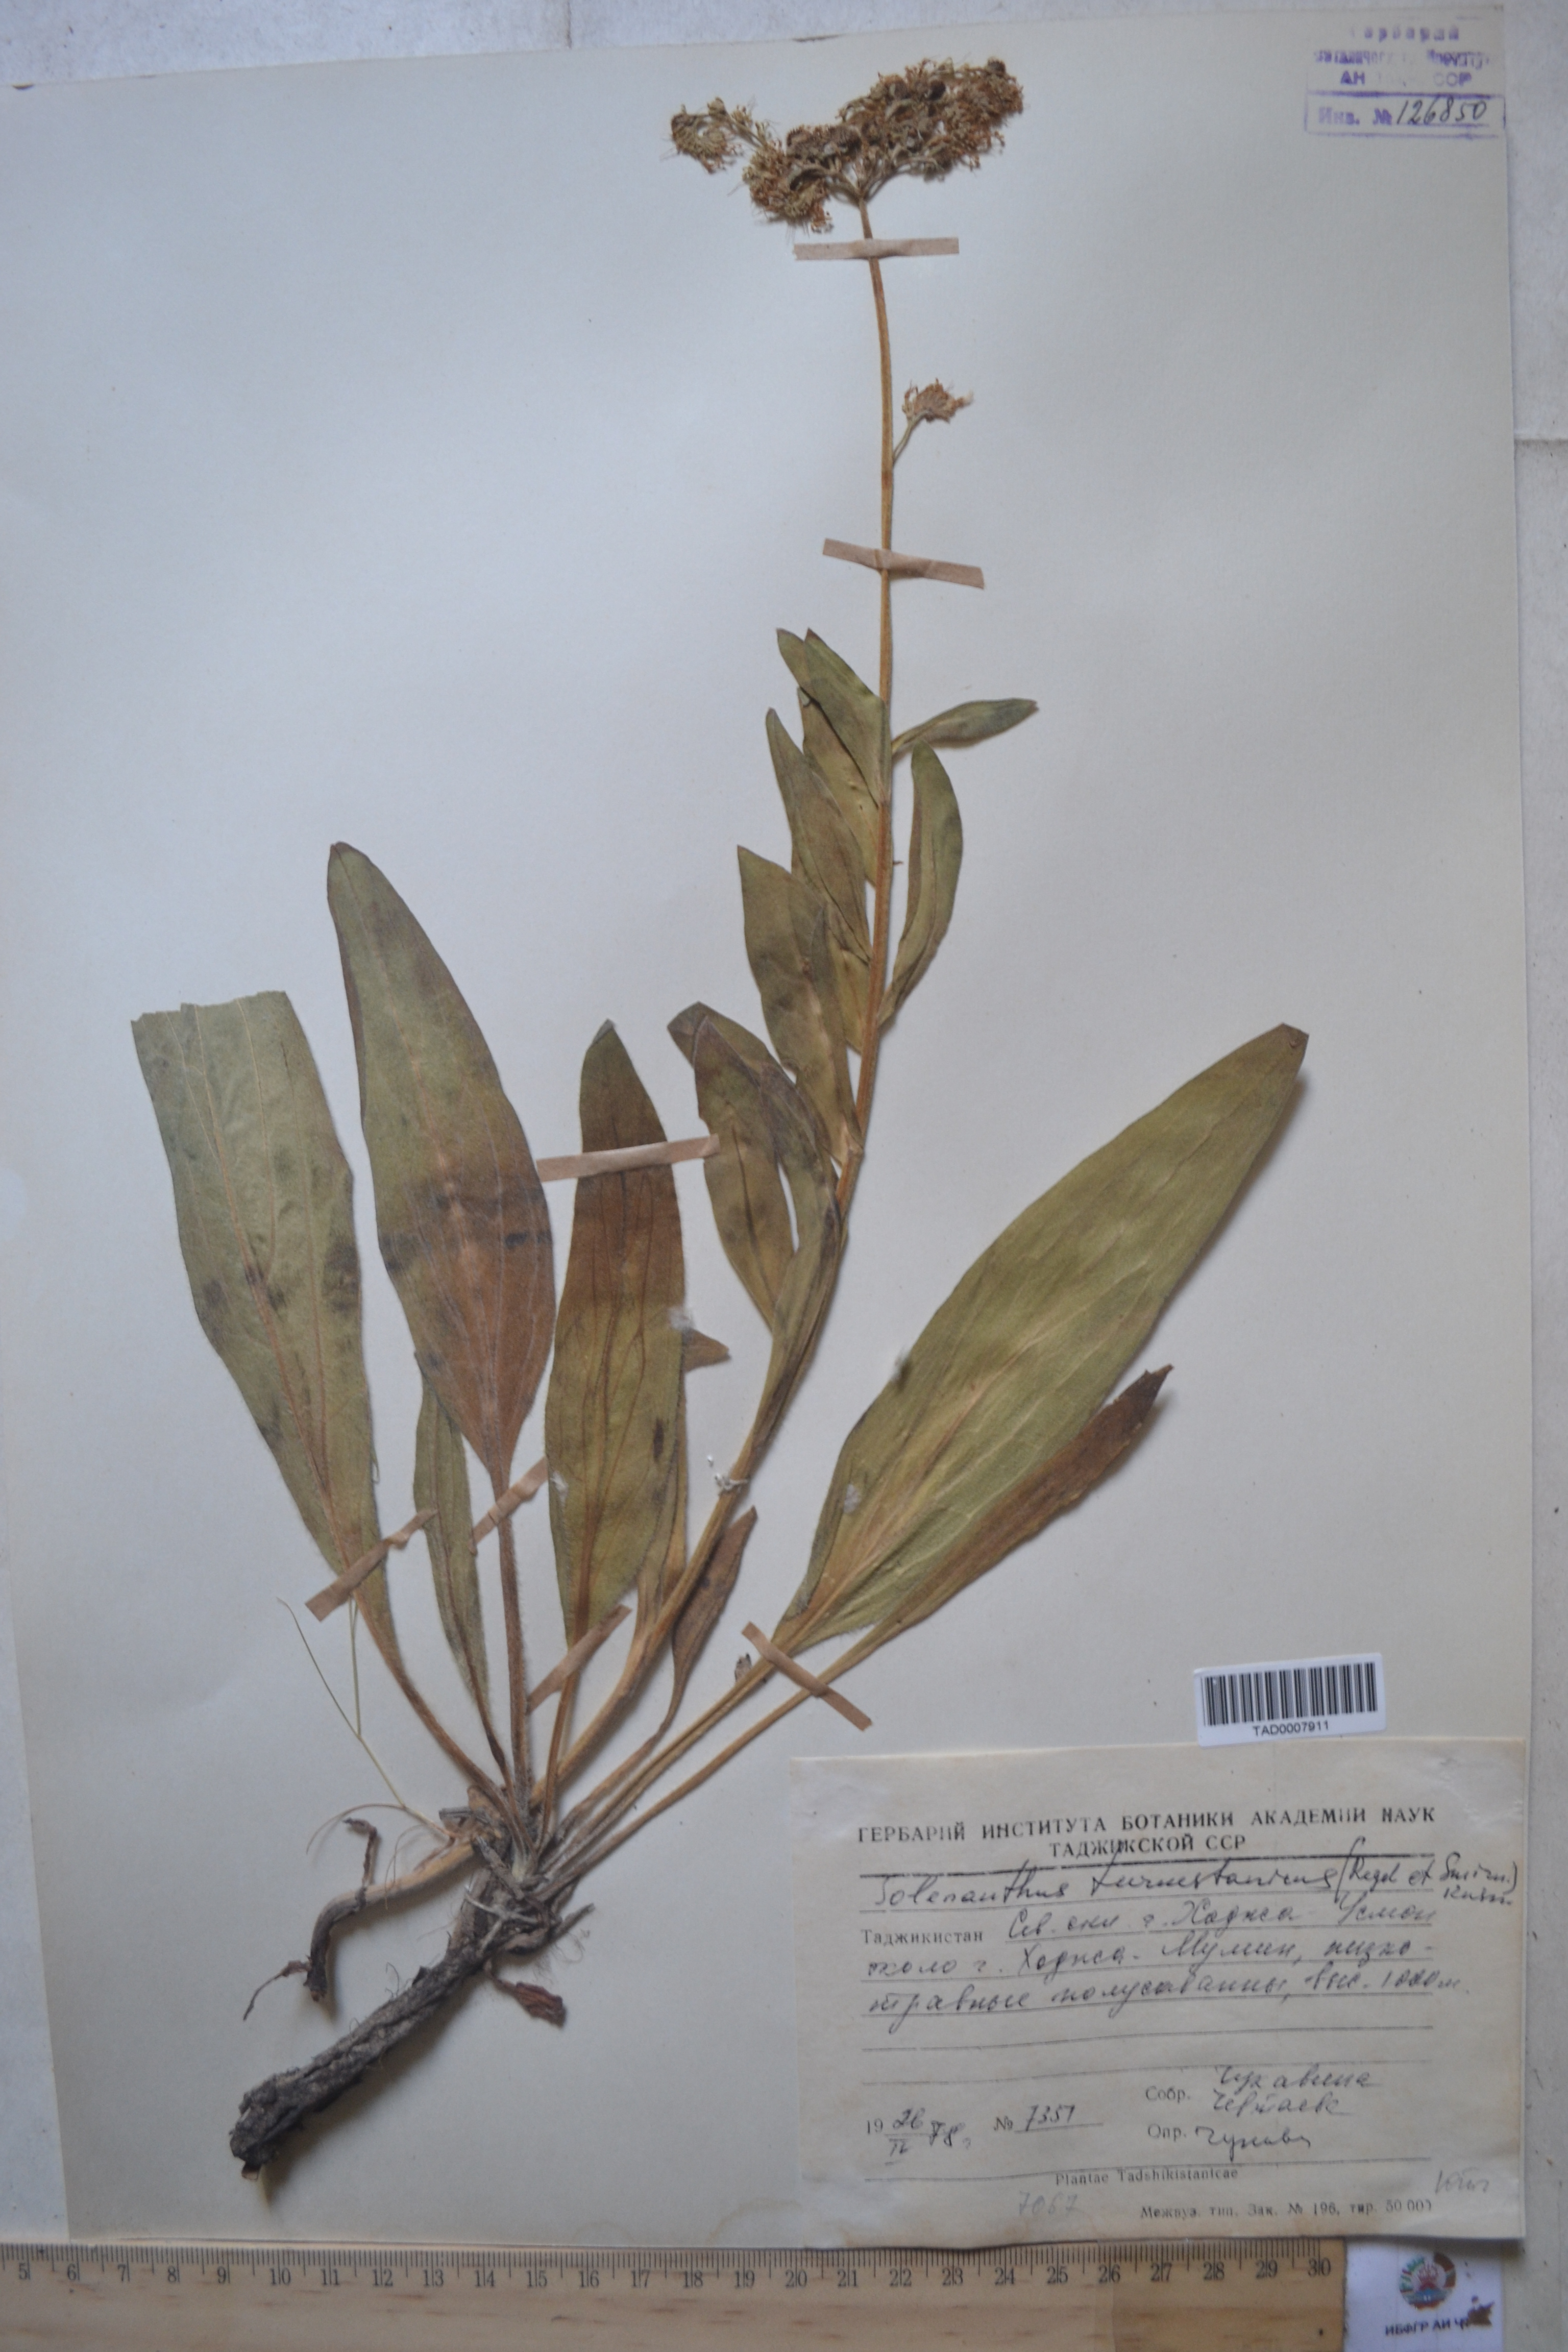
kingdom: Plantae
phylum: Tracheophyta
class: Magnoliopsida
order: Boraginales
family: Boraginaceae
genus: Solenanthus
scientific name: Solenanthus turkestanicus
